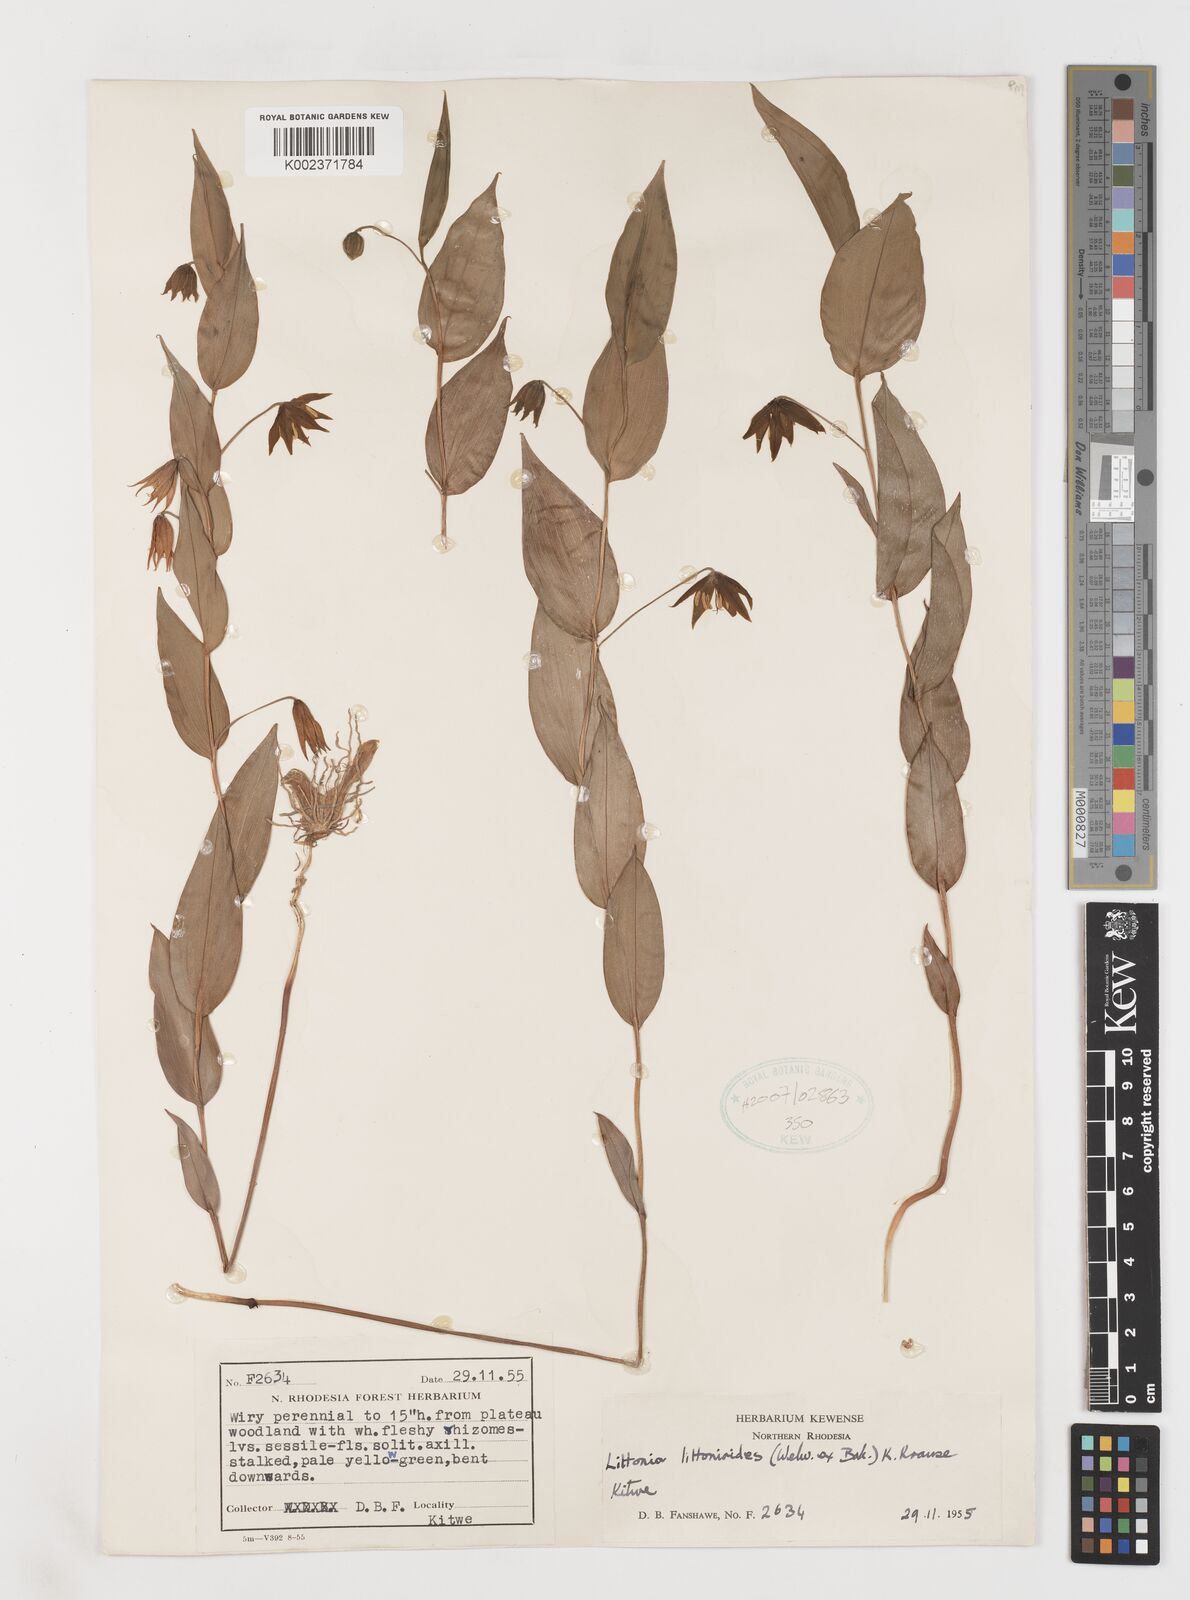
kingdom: Plantae
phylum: Tracheophyta
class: Liliopsida
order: Liliales
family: Colchicaceae
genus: Gloriosa
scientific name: Gloriosa littonioides
